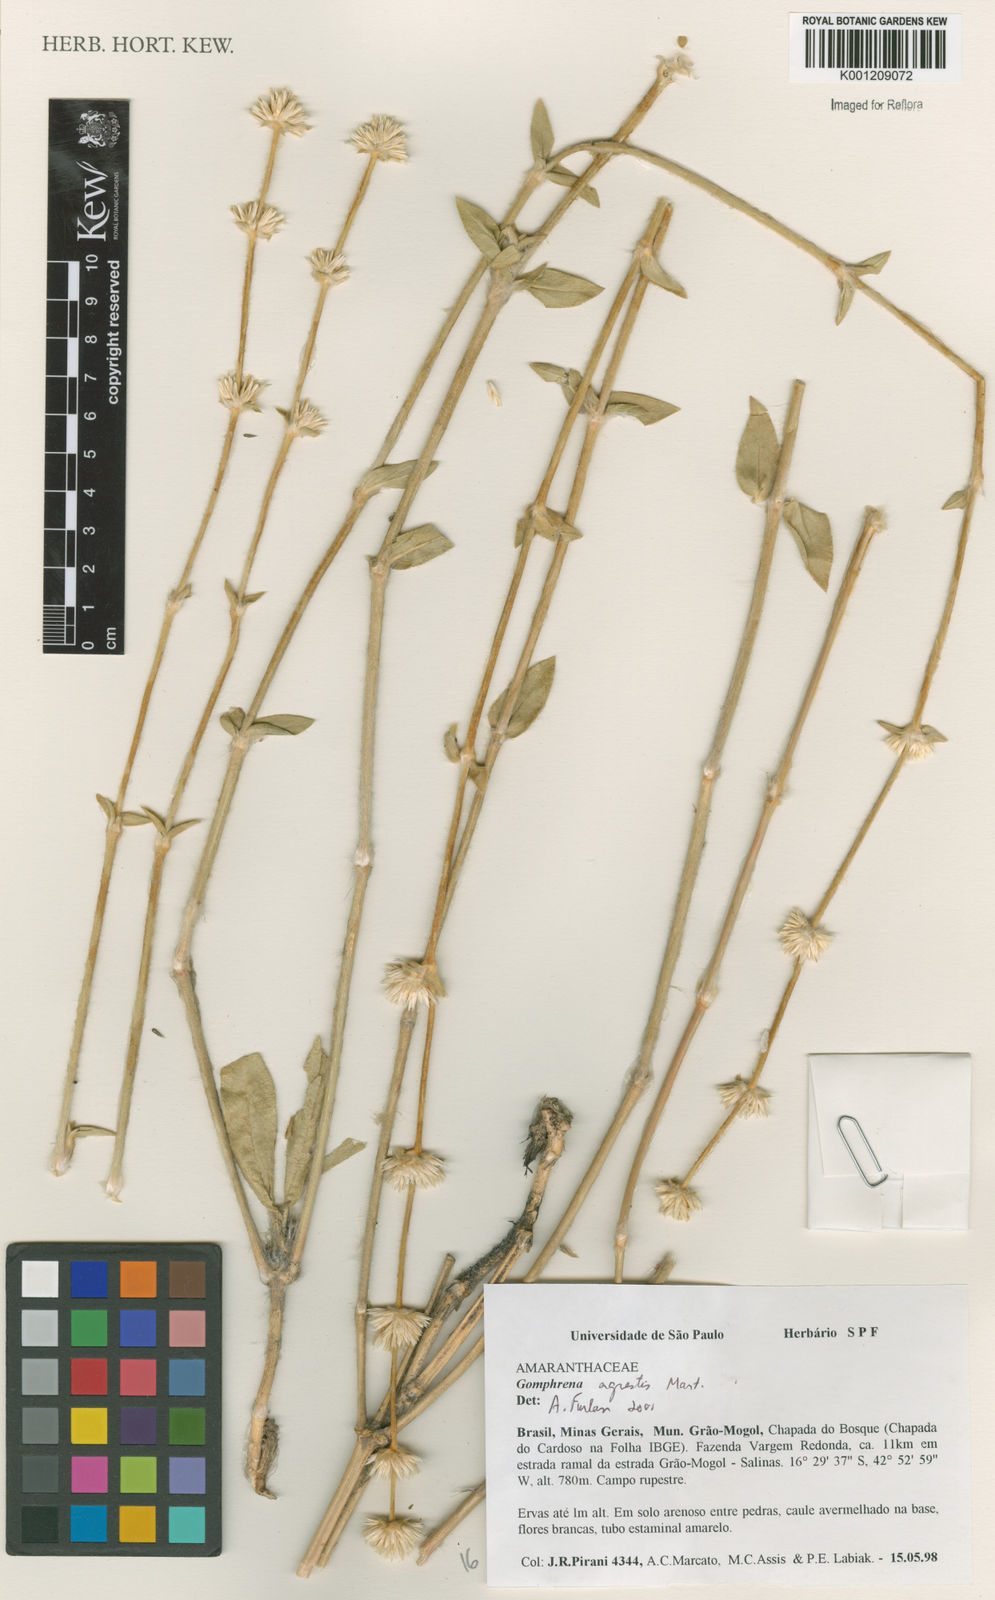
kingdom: Plantae
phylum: Tracheophyta
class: Magnoliopsida
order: Caryophyllales
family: Amaranthaceae
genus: Gomphrena
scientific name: Gomphrena agrestis
